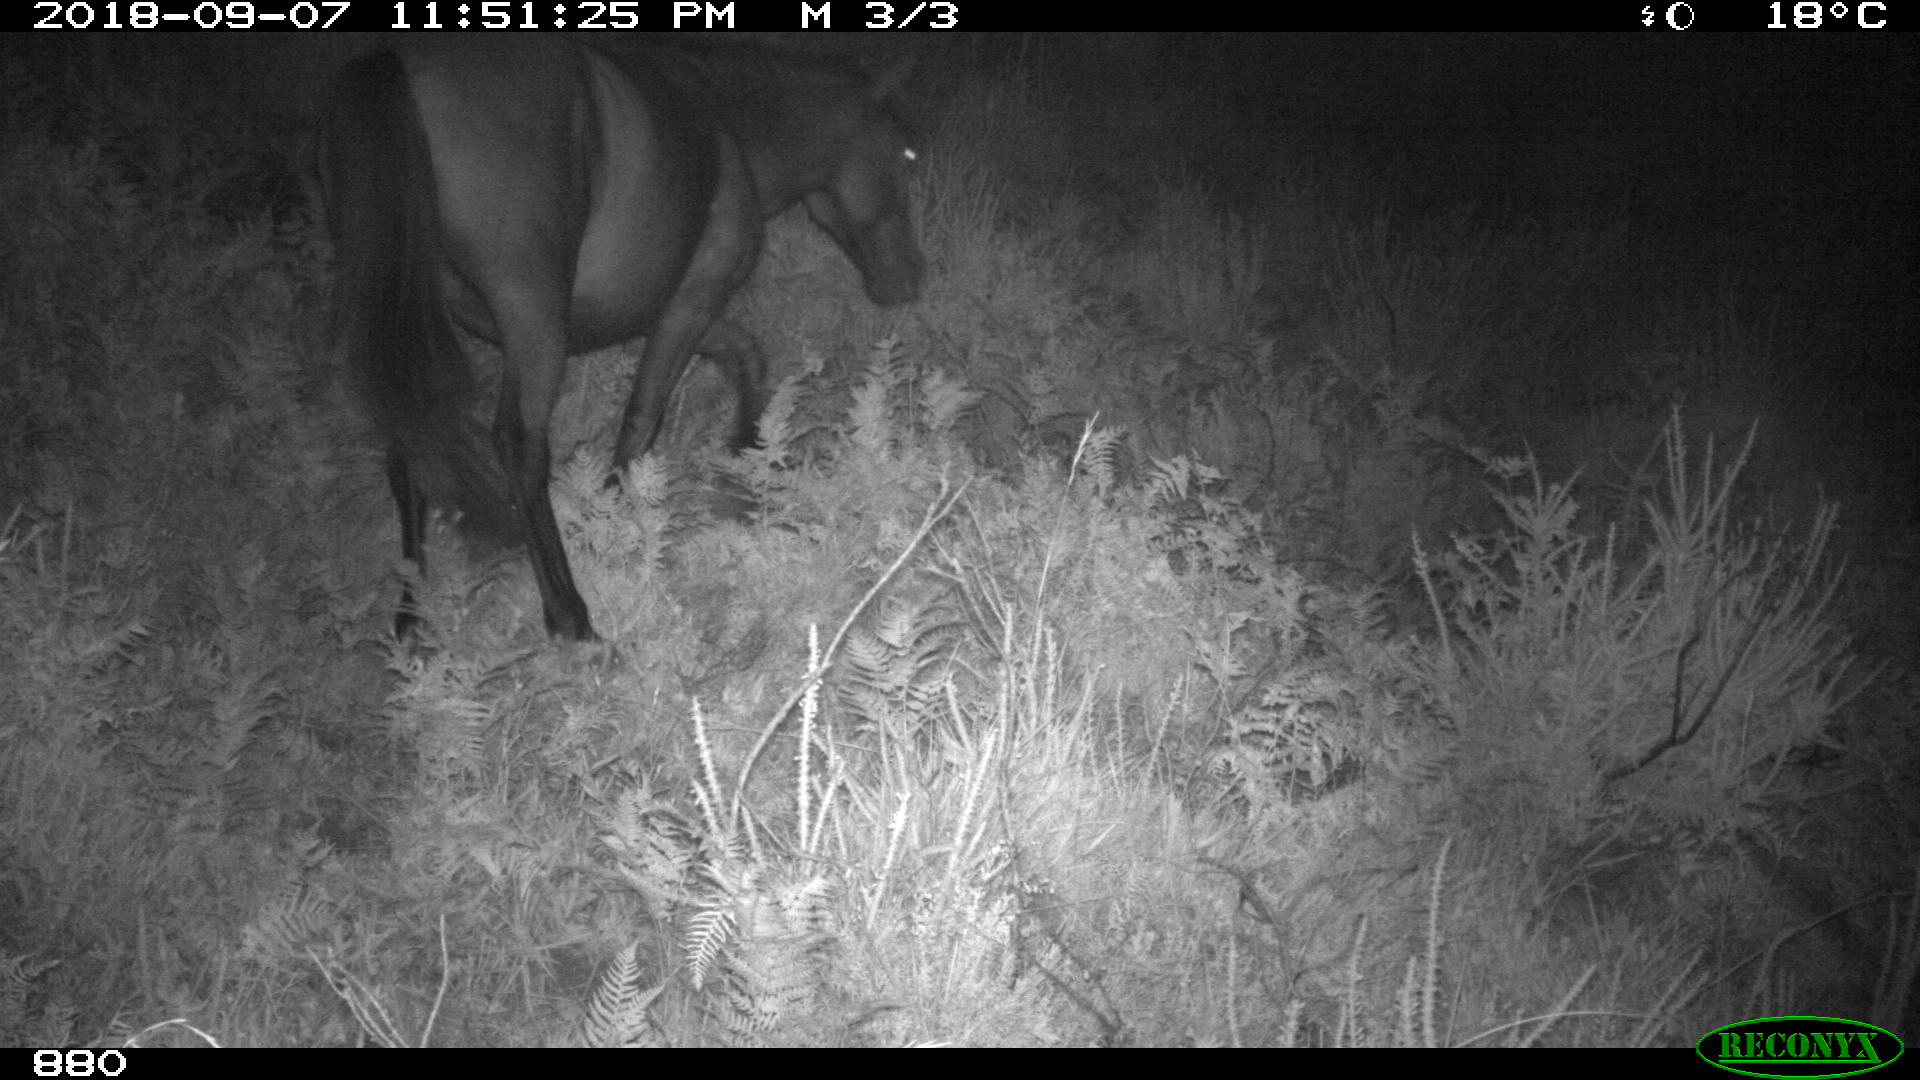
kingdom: Animalia
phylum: Chordata
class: Mammalia
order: Perissodactyla
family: Equidae
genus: Equus
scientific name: Equus caballus
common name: Horse
